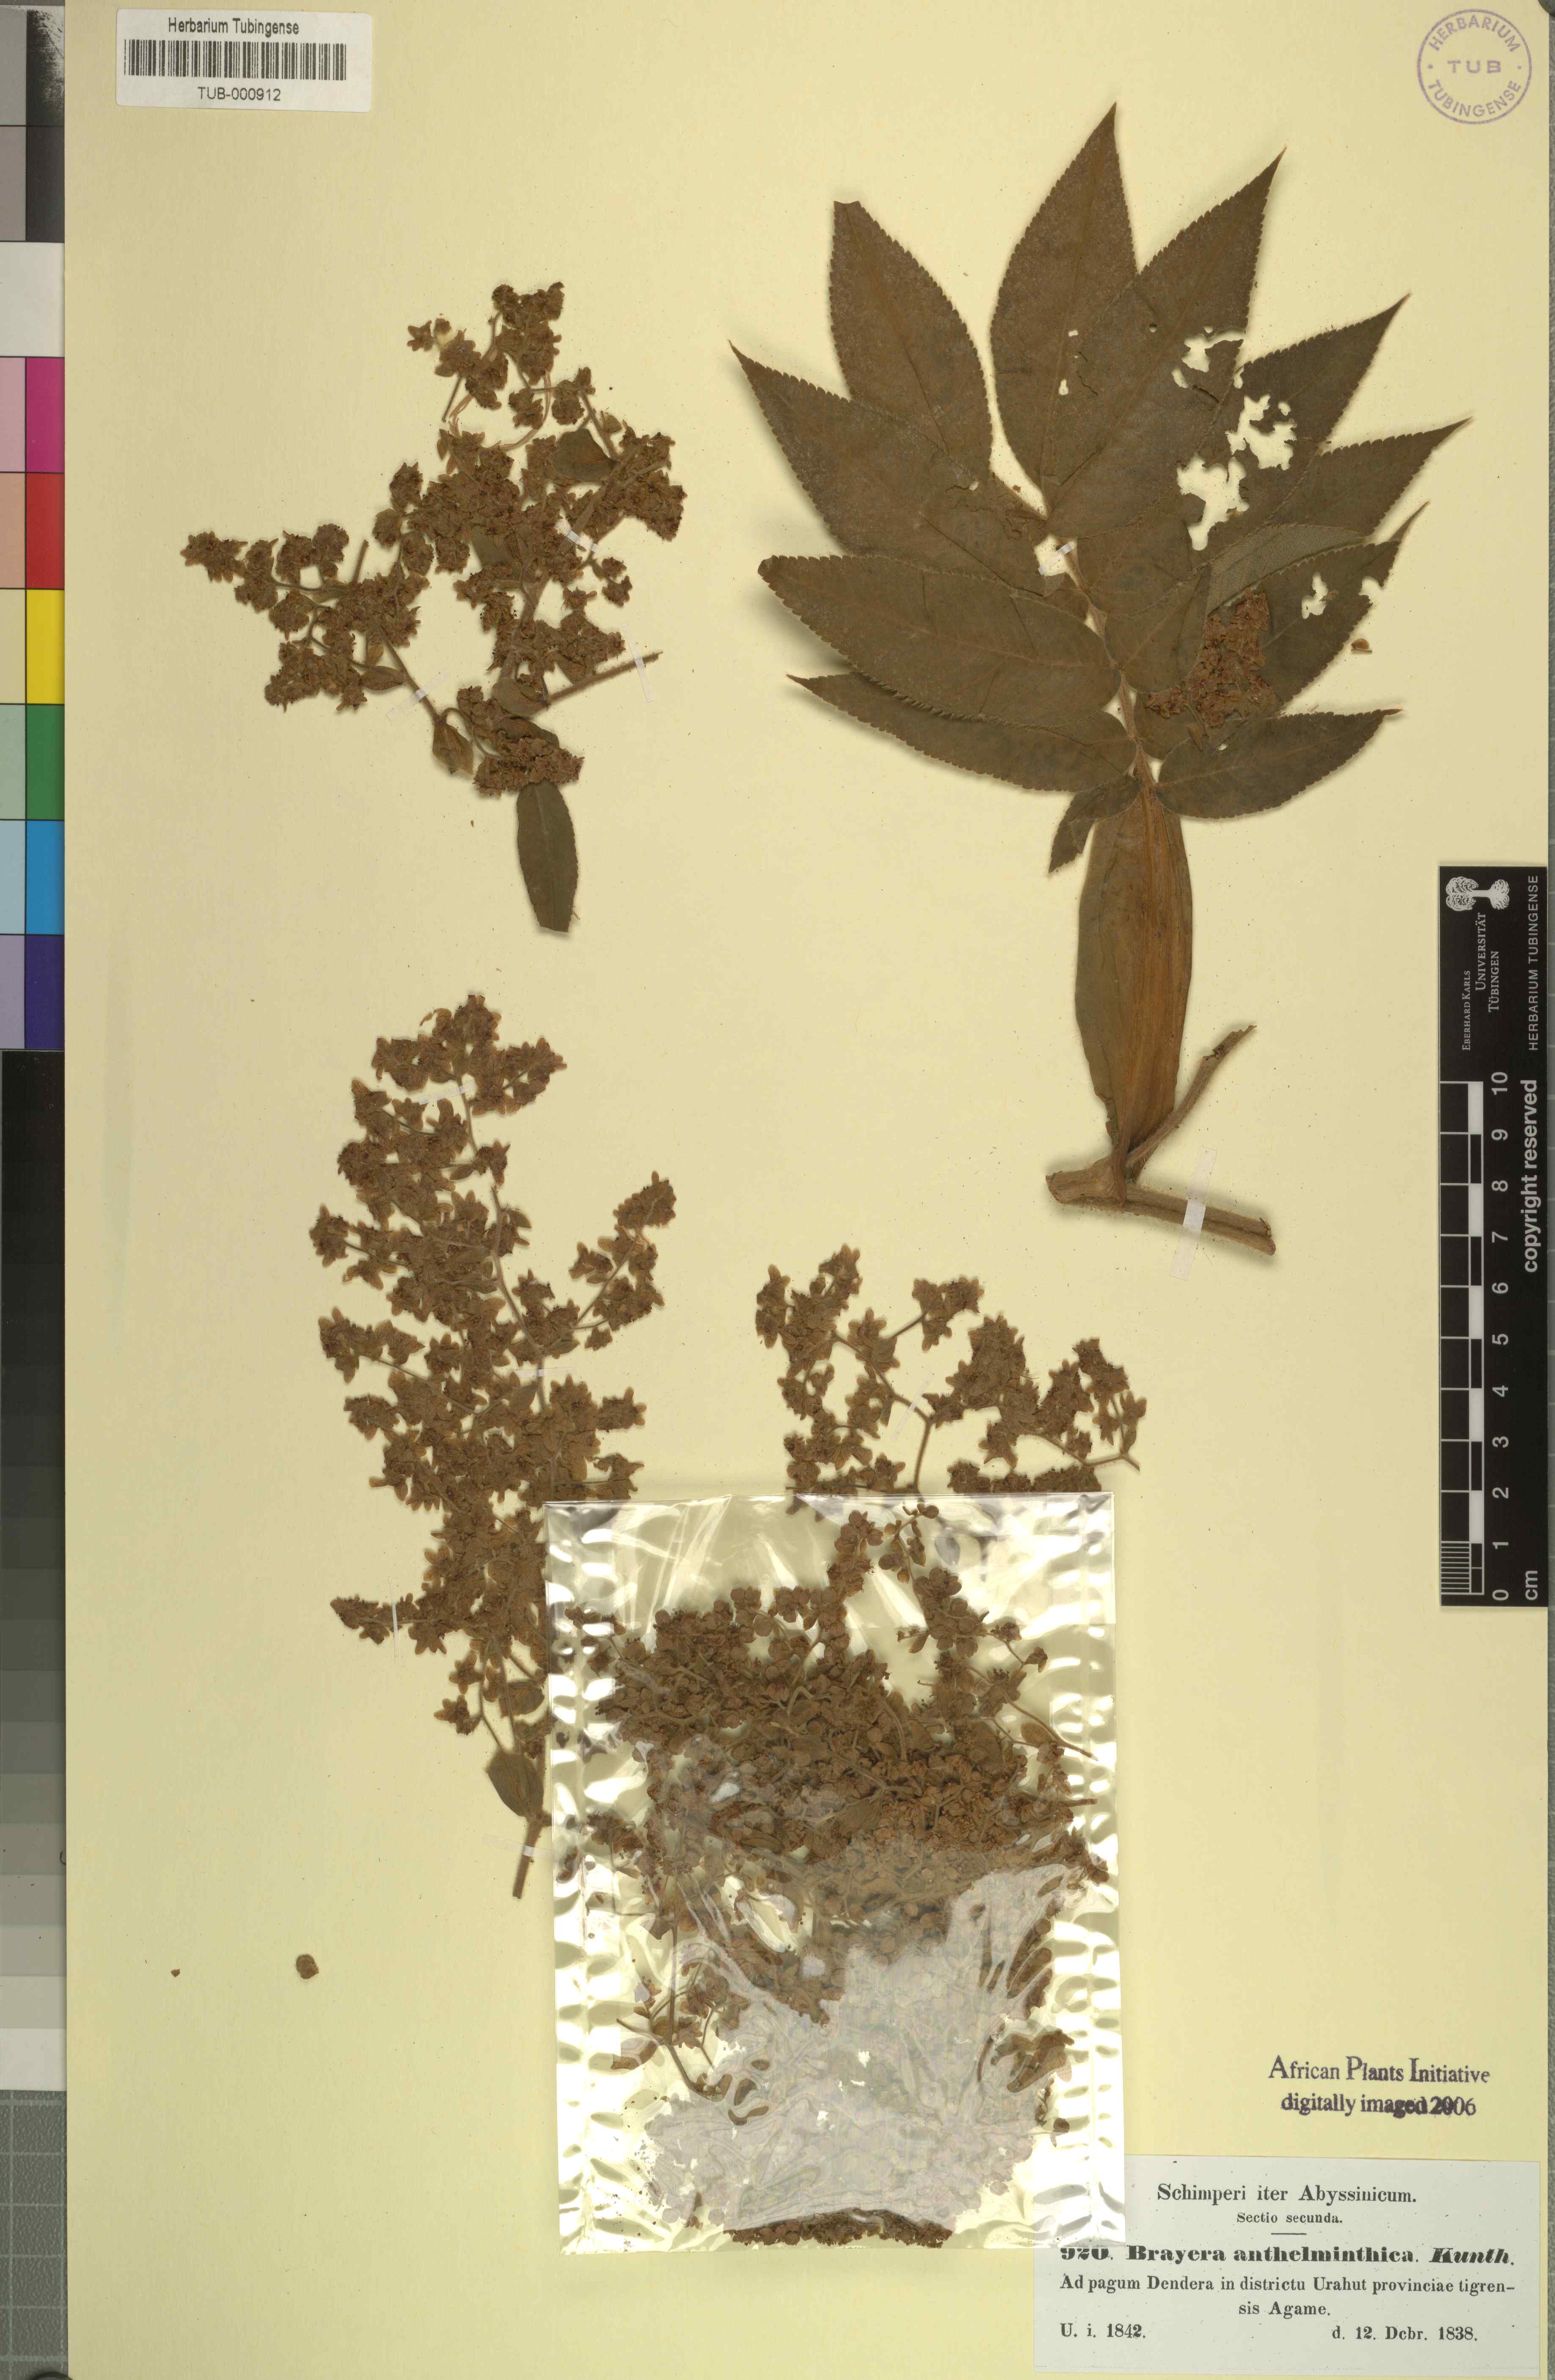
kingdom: Plantae
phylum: Tracheophyta
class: Magnoliopsida
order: Rosales
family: Rosaceae
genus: Hagenia
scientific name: Hagenia abyssinica
